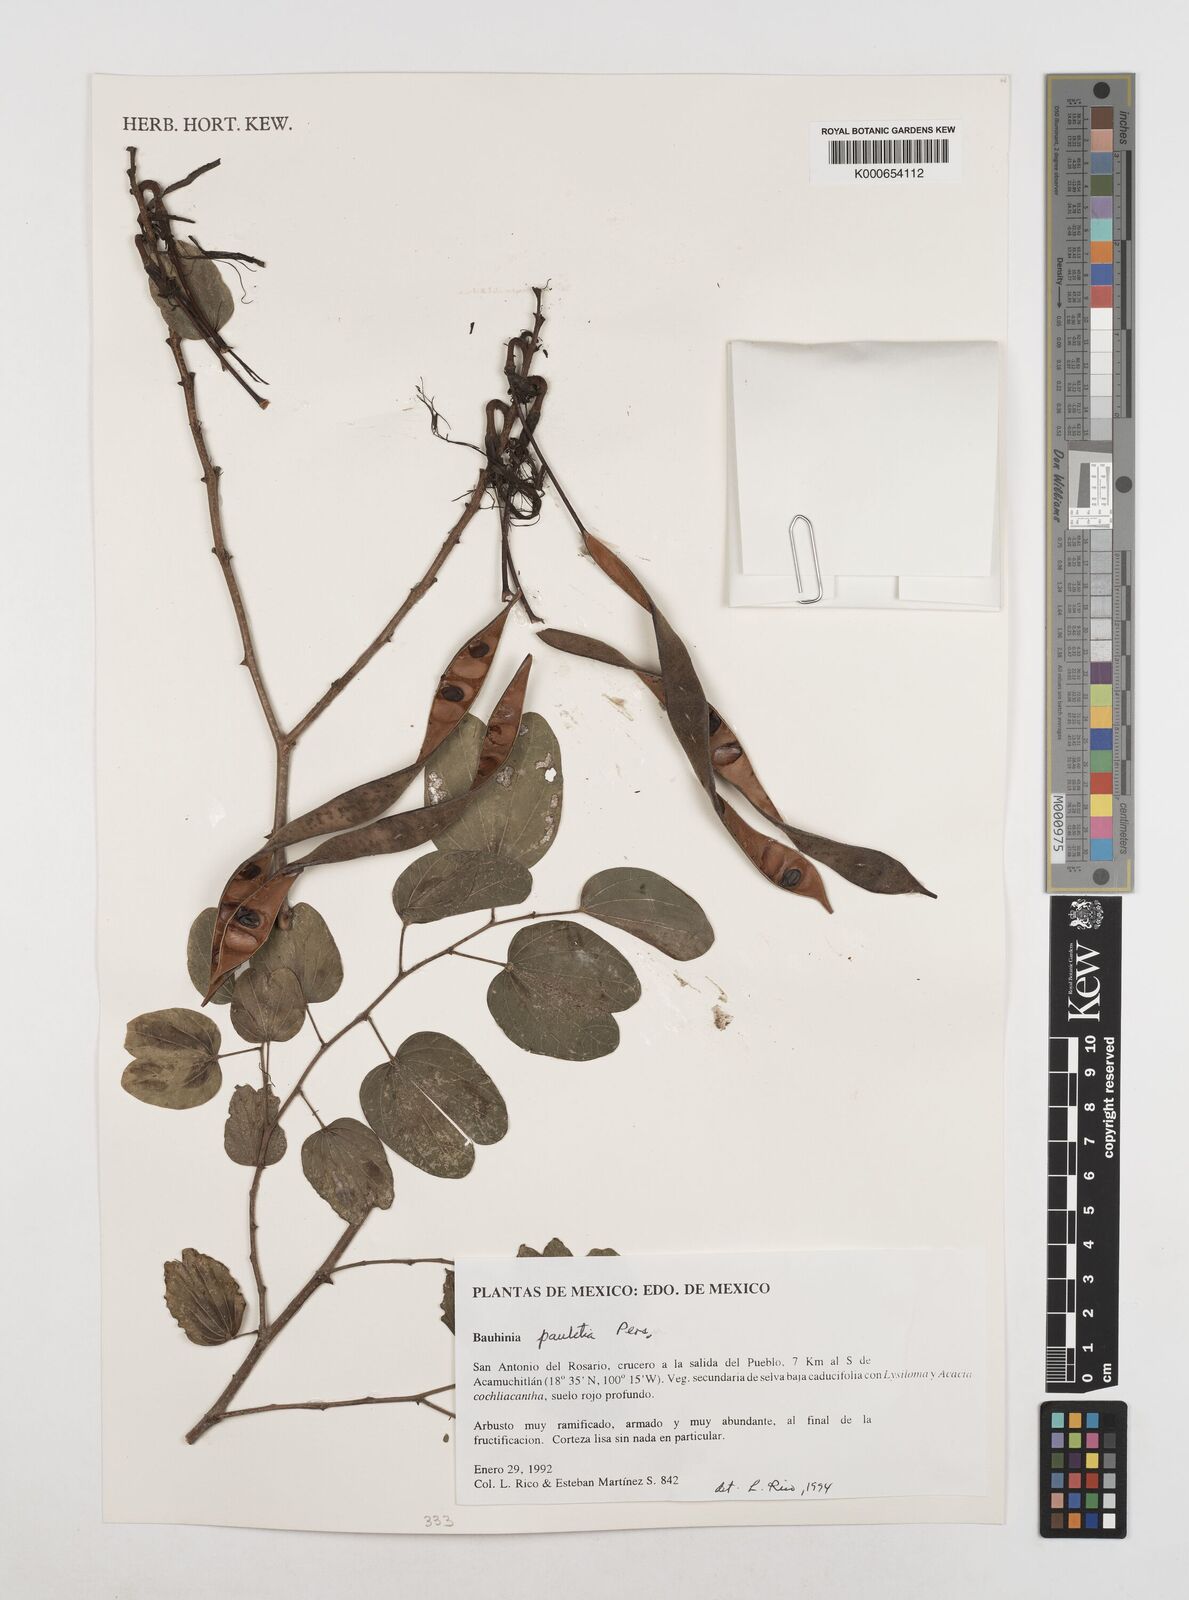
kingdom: Plantae
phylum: Tracheophyta
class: Magnoliopsida
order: Fabales
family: Fabaceae
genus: Bauhinia
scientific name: Bauhinia pauletia
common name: Railway-fence bauhinia
